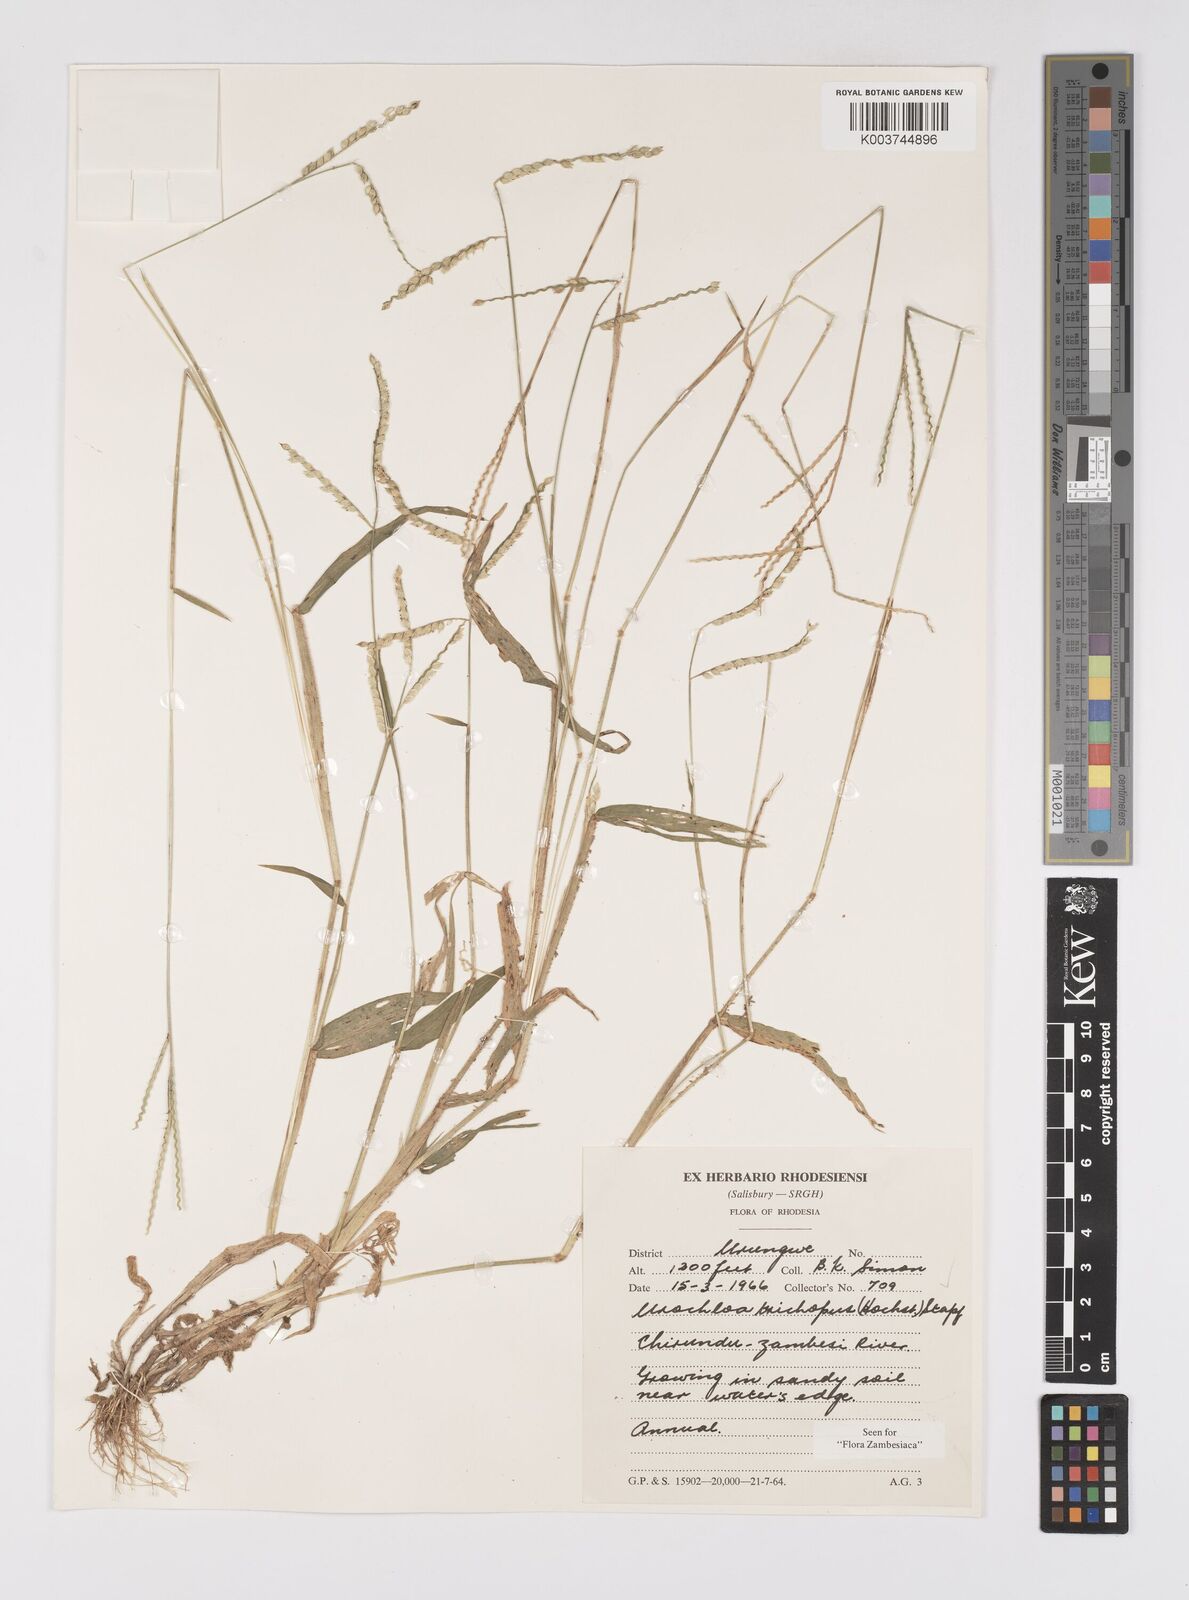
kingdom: Plantae
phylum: Tracheophyta
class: Liliopsida
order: Poales
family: Poaceae
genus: Urochloa
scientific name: Urochloa trichopus
